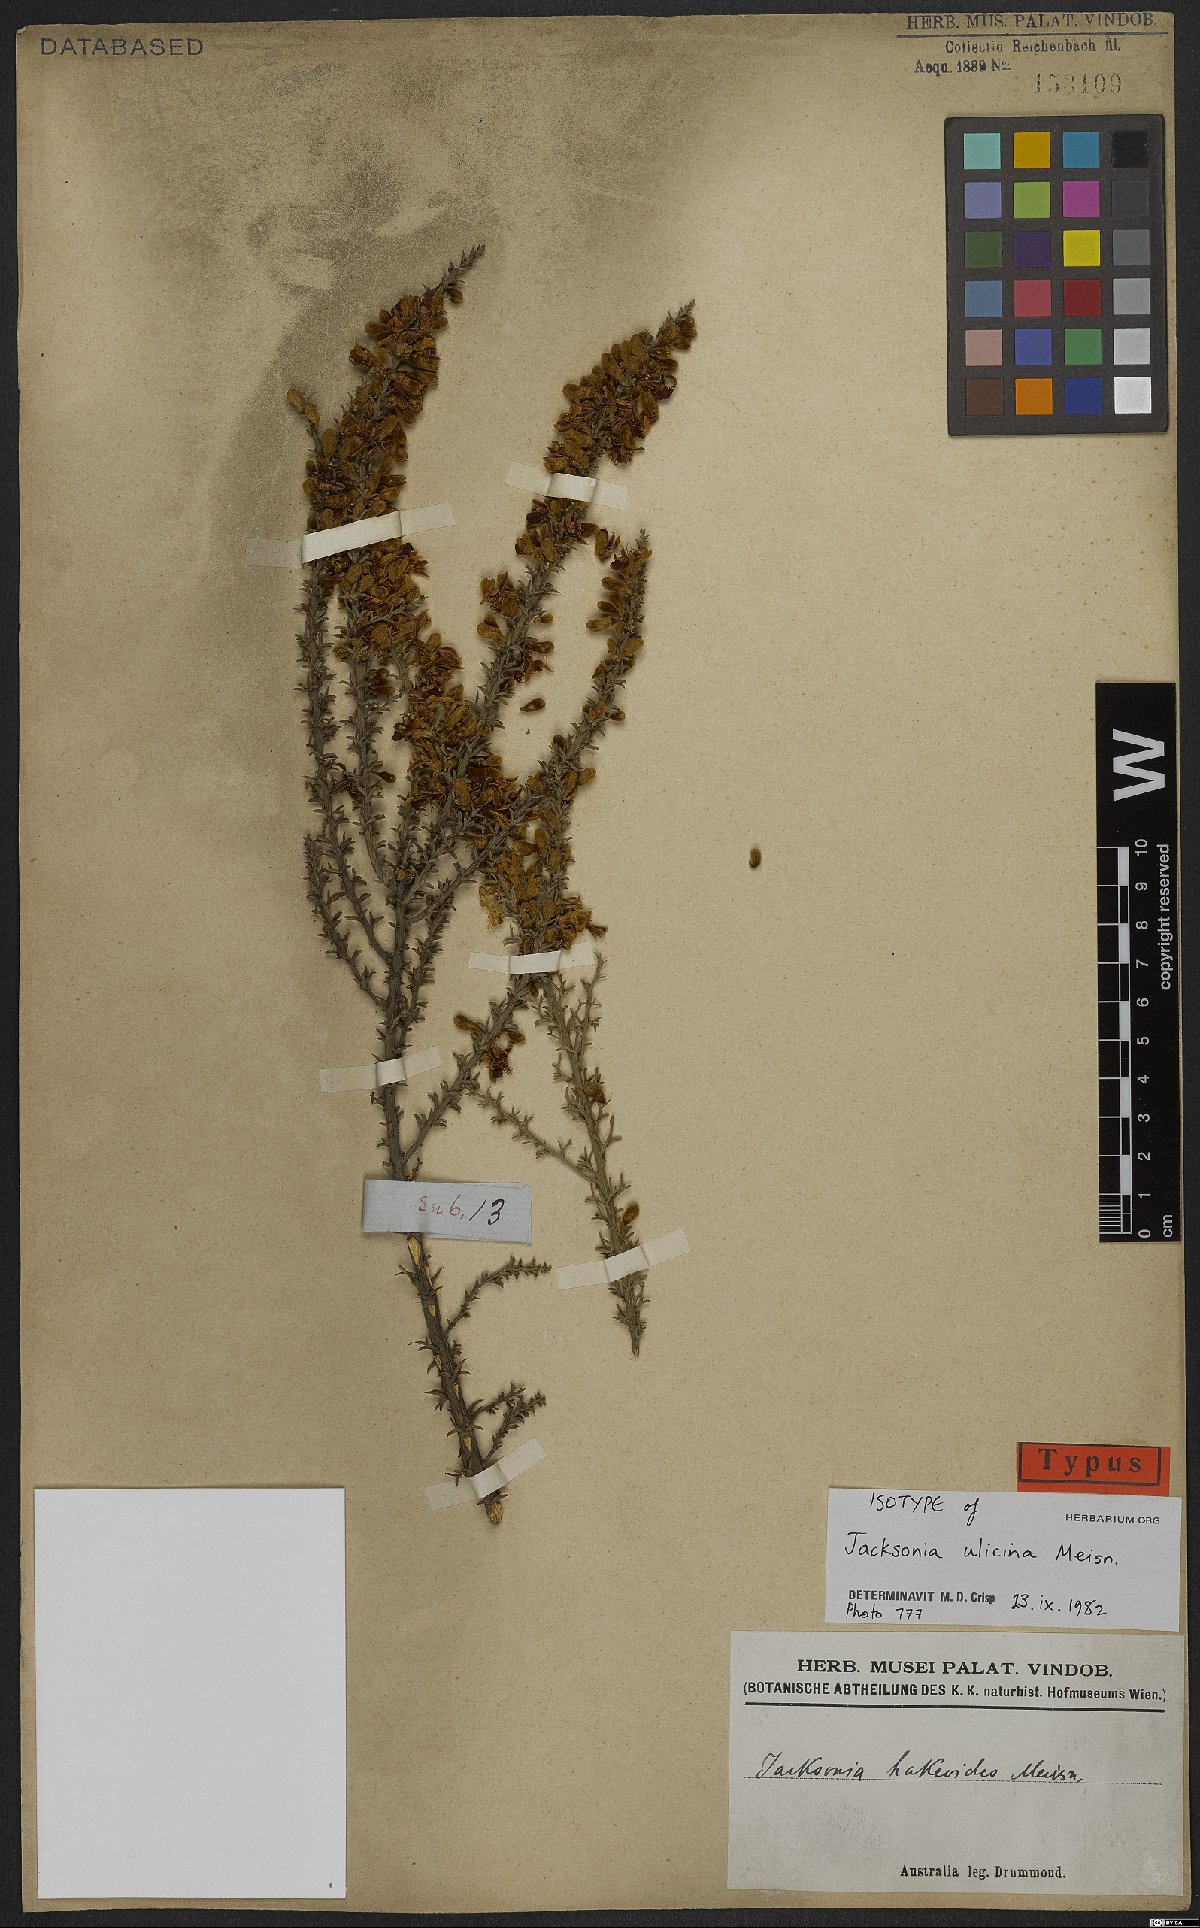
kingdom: Plantae
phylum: Tracheophyta
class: Magnoliopsida
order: Fabales
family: Fabaceae
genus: Jacksonia
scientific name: Jacksonia hakeoides
